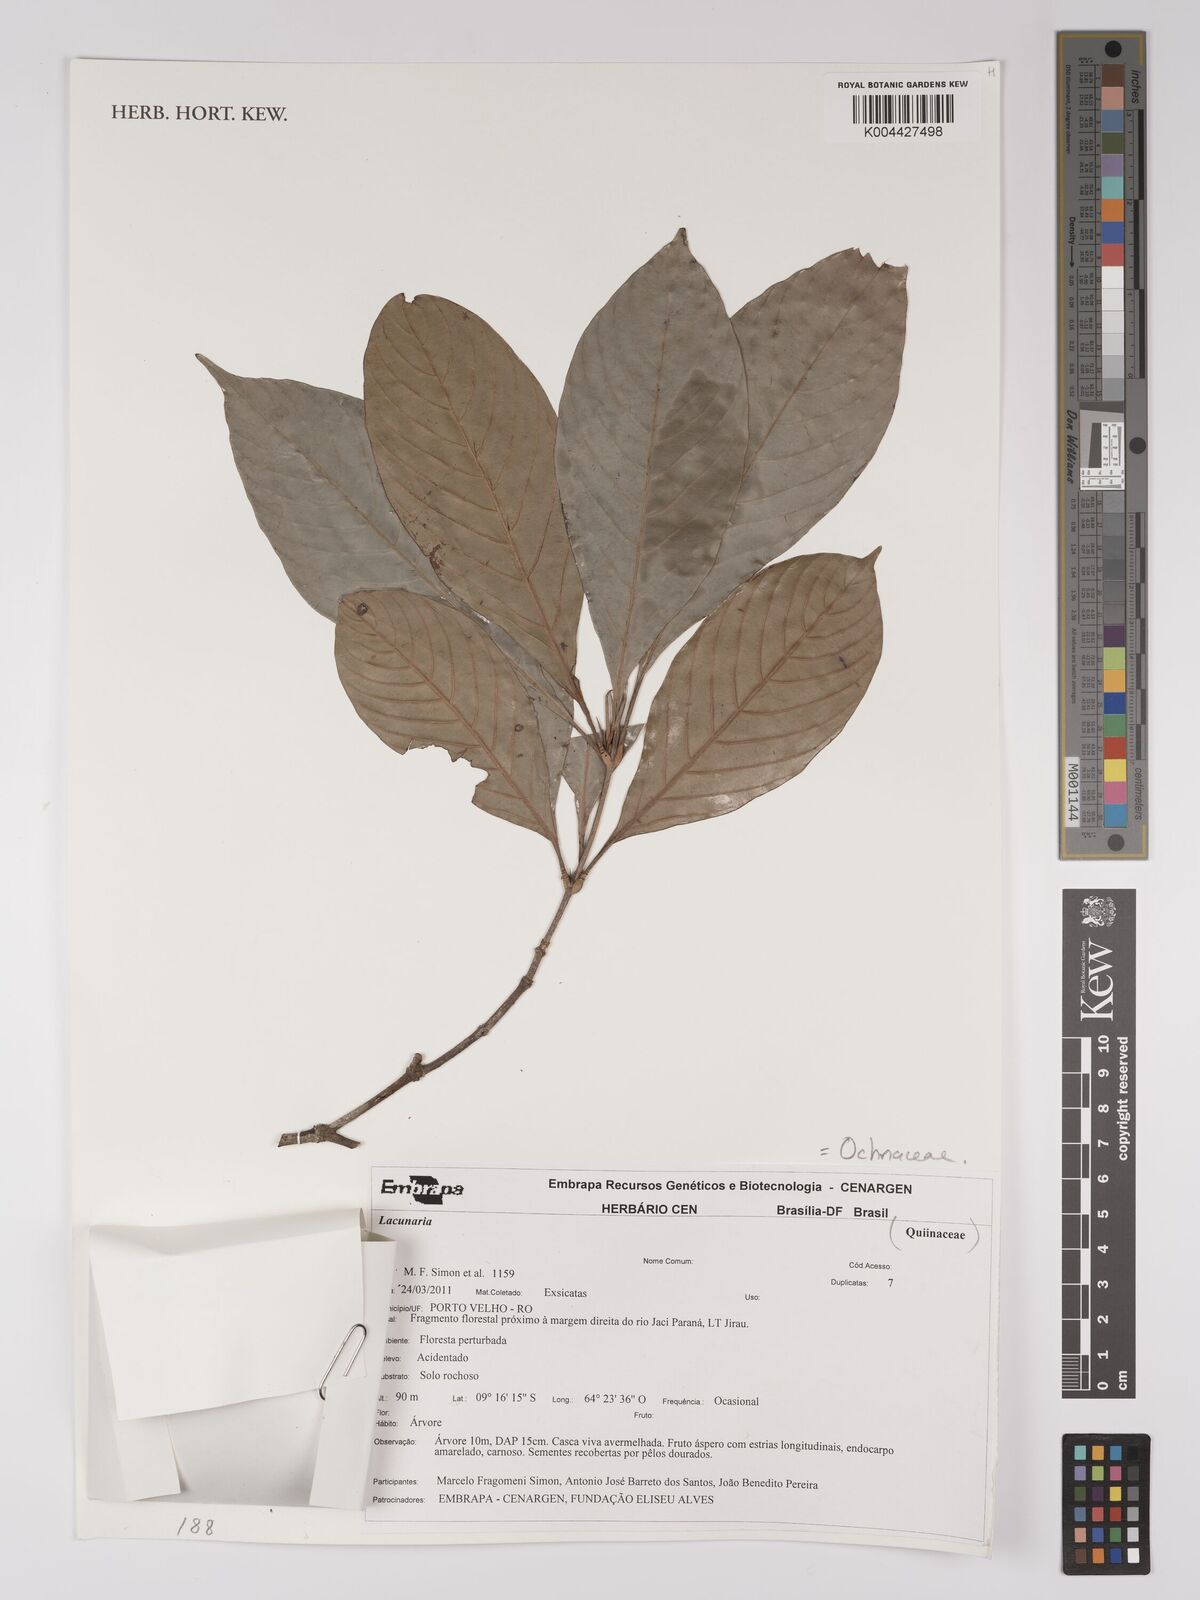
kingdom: Plantae
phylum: Tracheophyta
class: Magnoliopsida
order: Malpighiales
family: Quiinaceae
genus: Lacunaria
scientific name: Lacunaria oppositifolia
